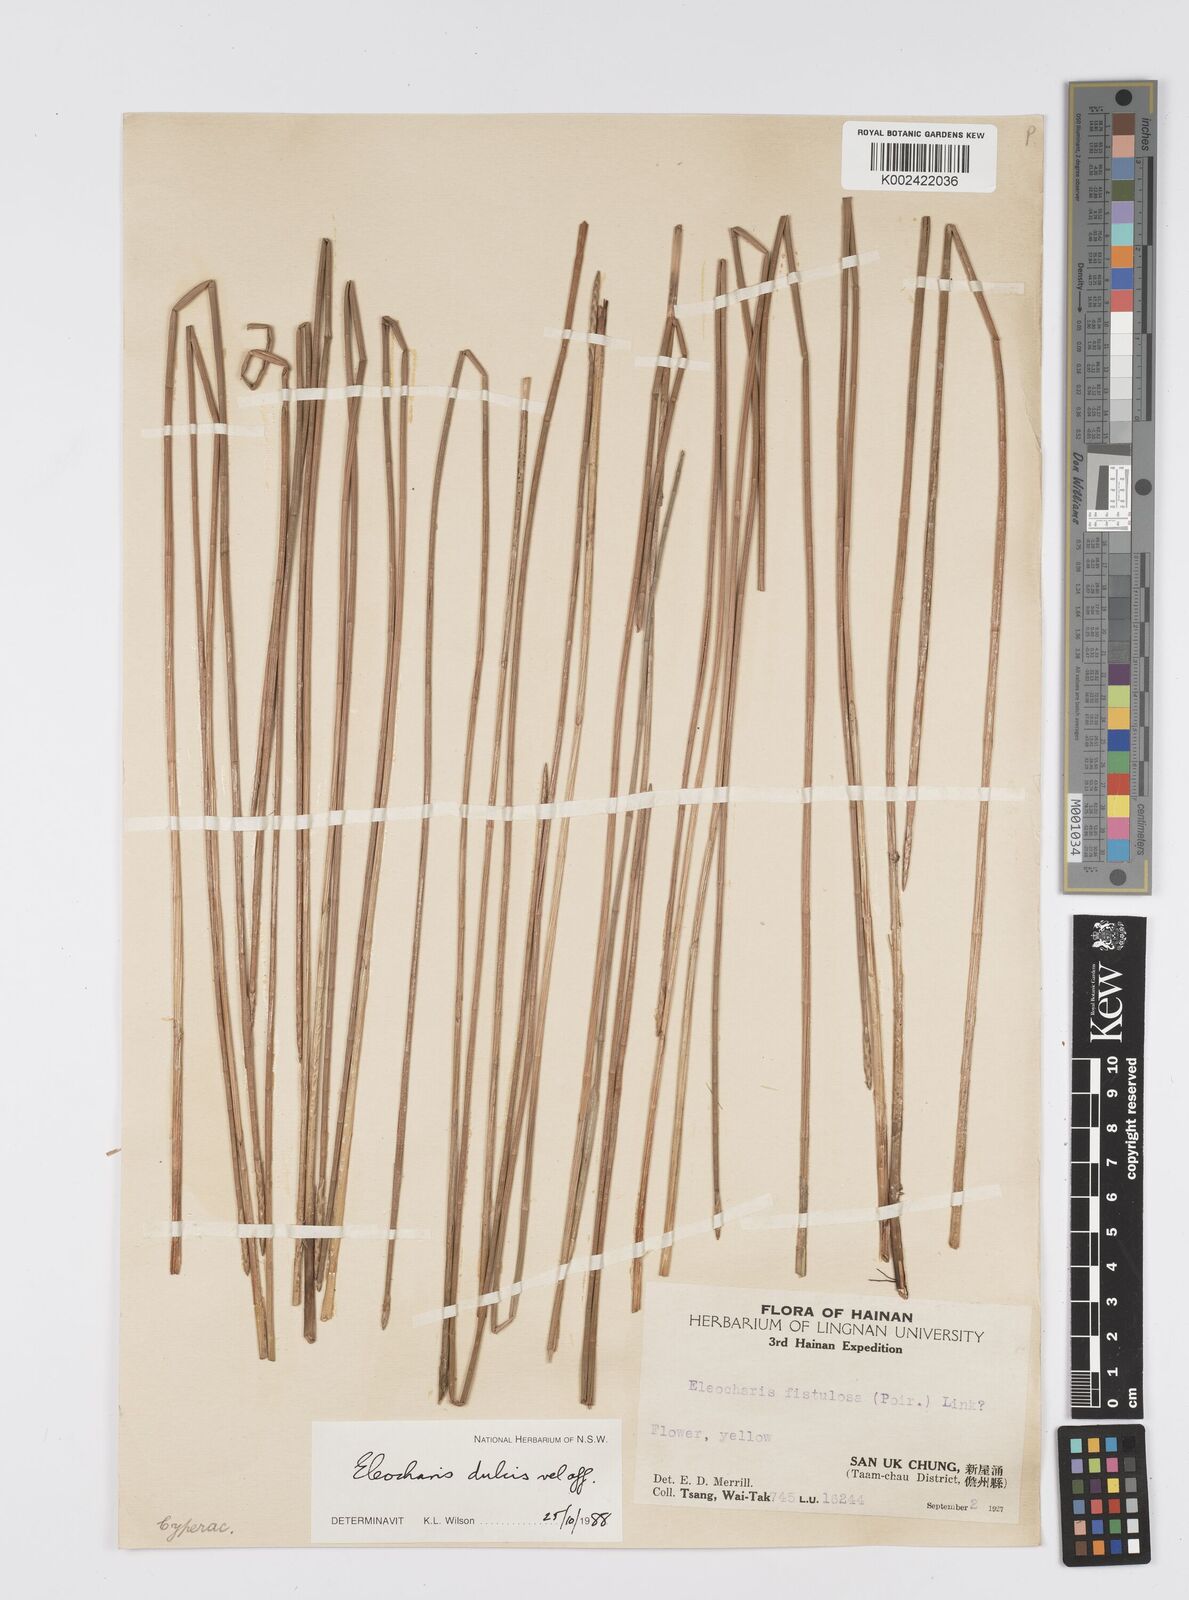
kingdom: Plantae
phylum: Tracheophyta
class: Liliopsida
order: Poales
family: Cyperaceae
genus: Eleocharis
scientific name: Eleocharis dulcis
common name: Chinese water chestnut
